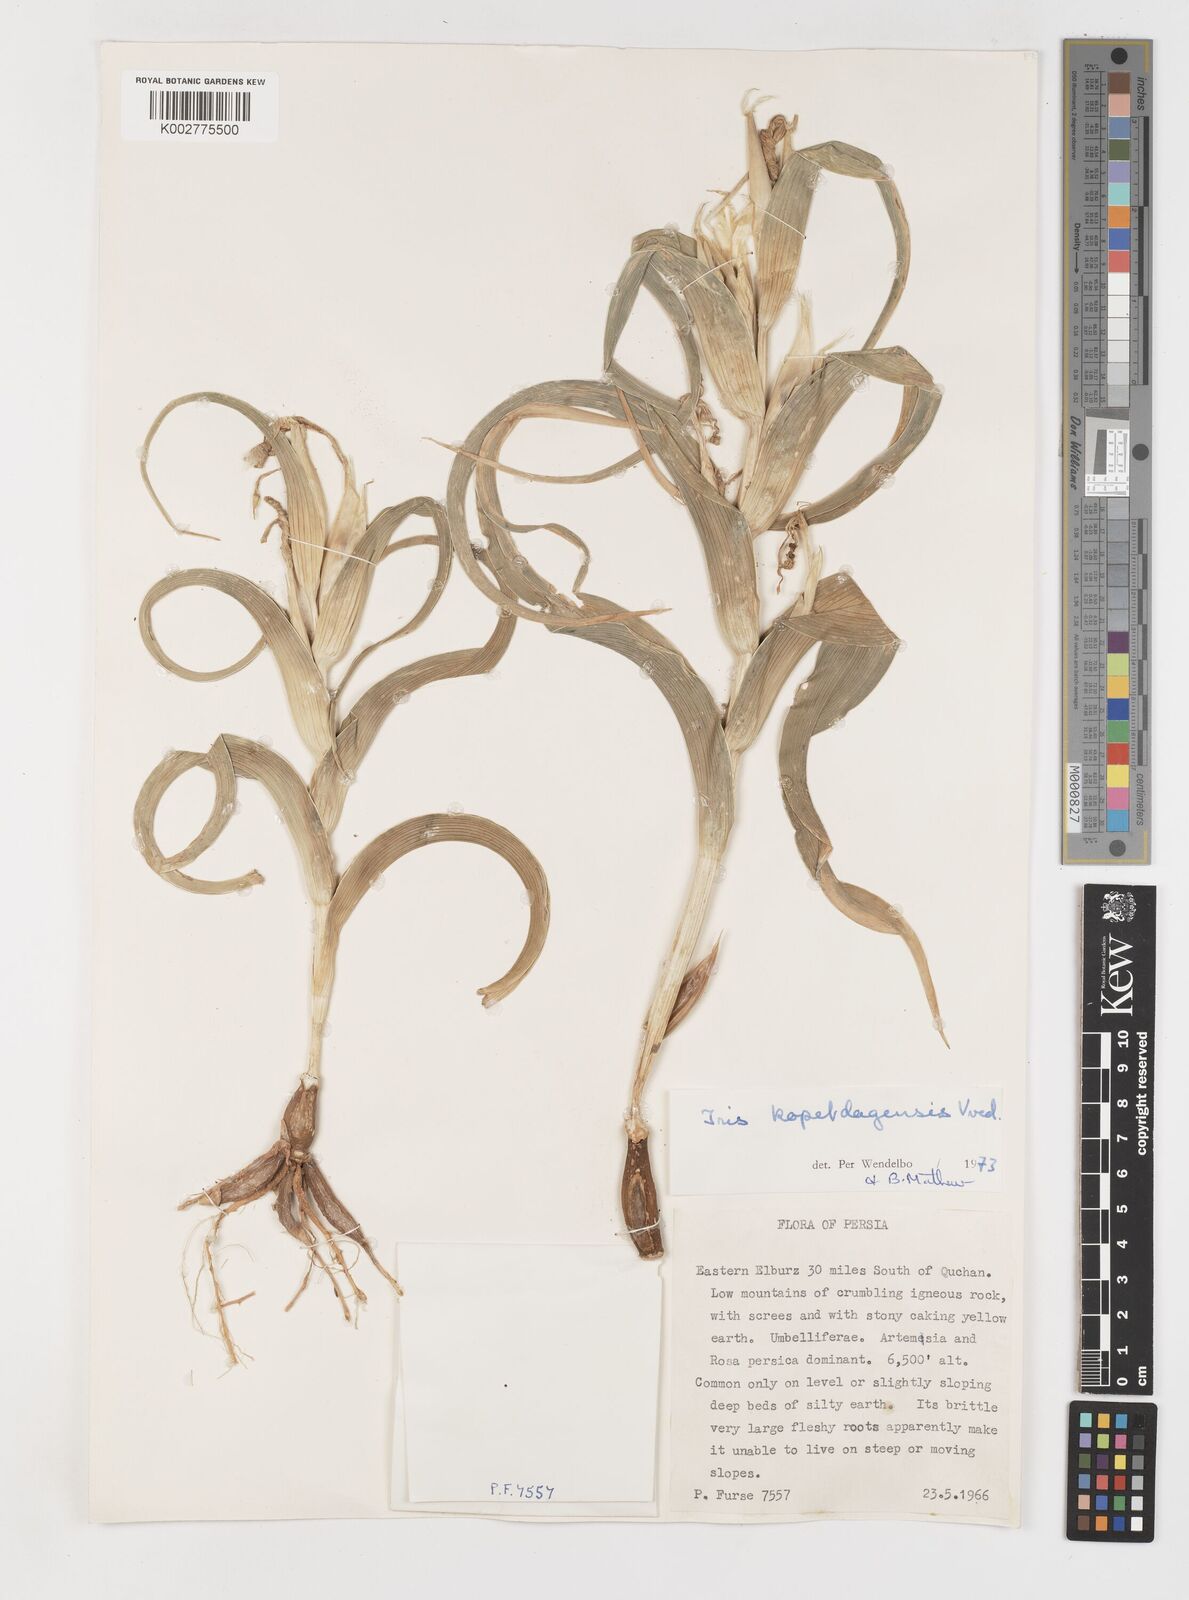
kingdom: Plantae
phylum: Tracheophyta
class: Liliopsida
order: Asparagales
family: Iridaceae
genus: Iris
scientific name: Iris kopetdagensis
